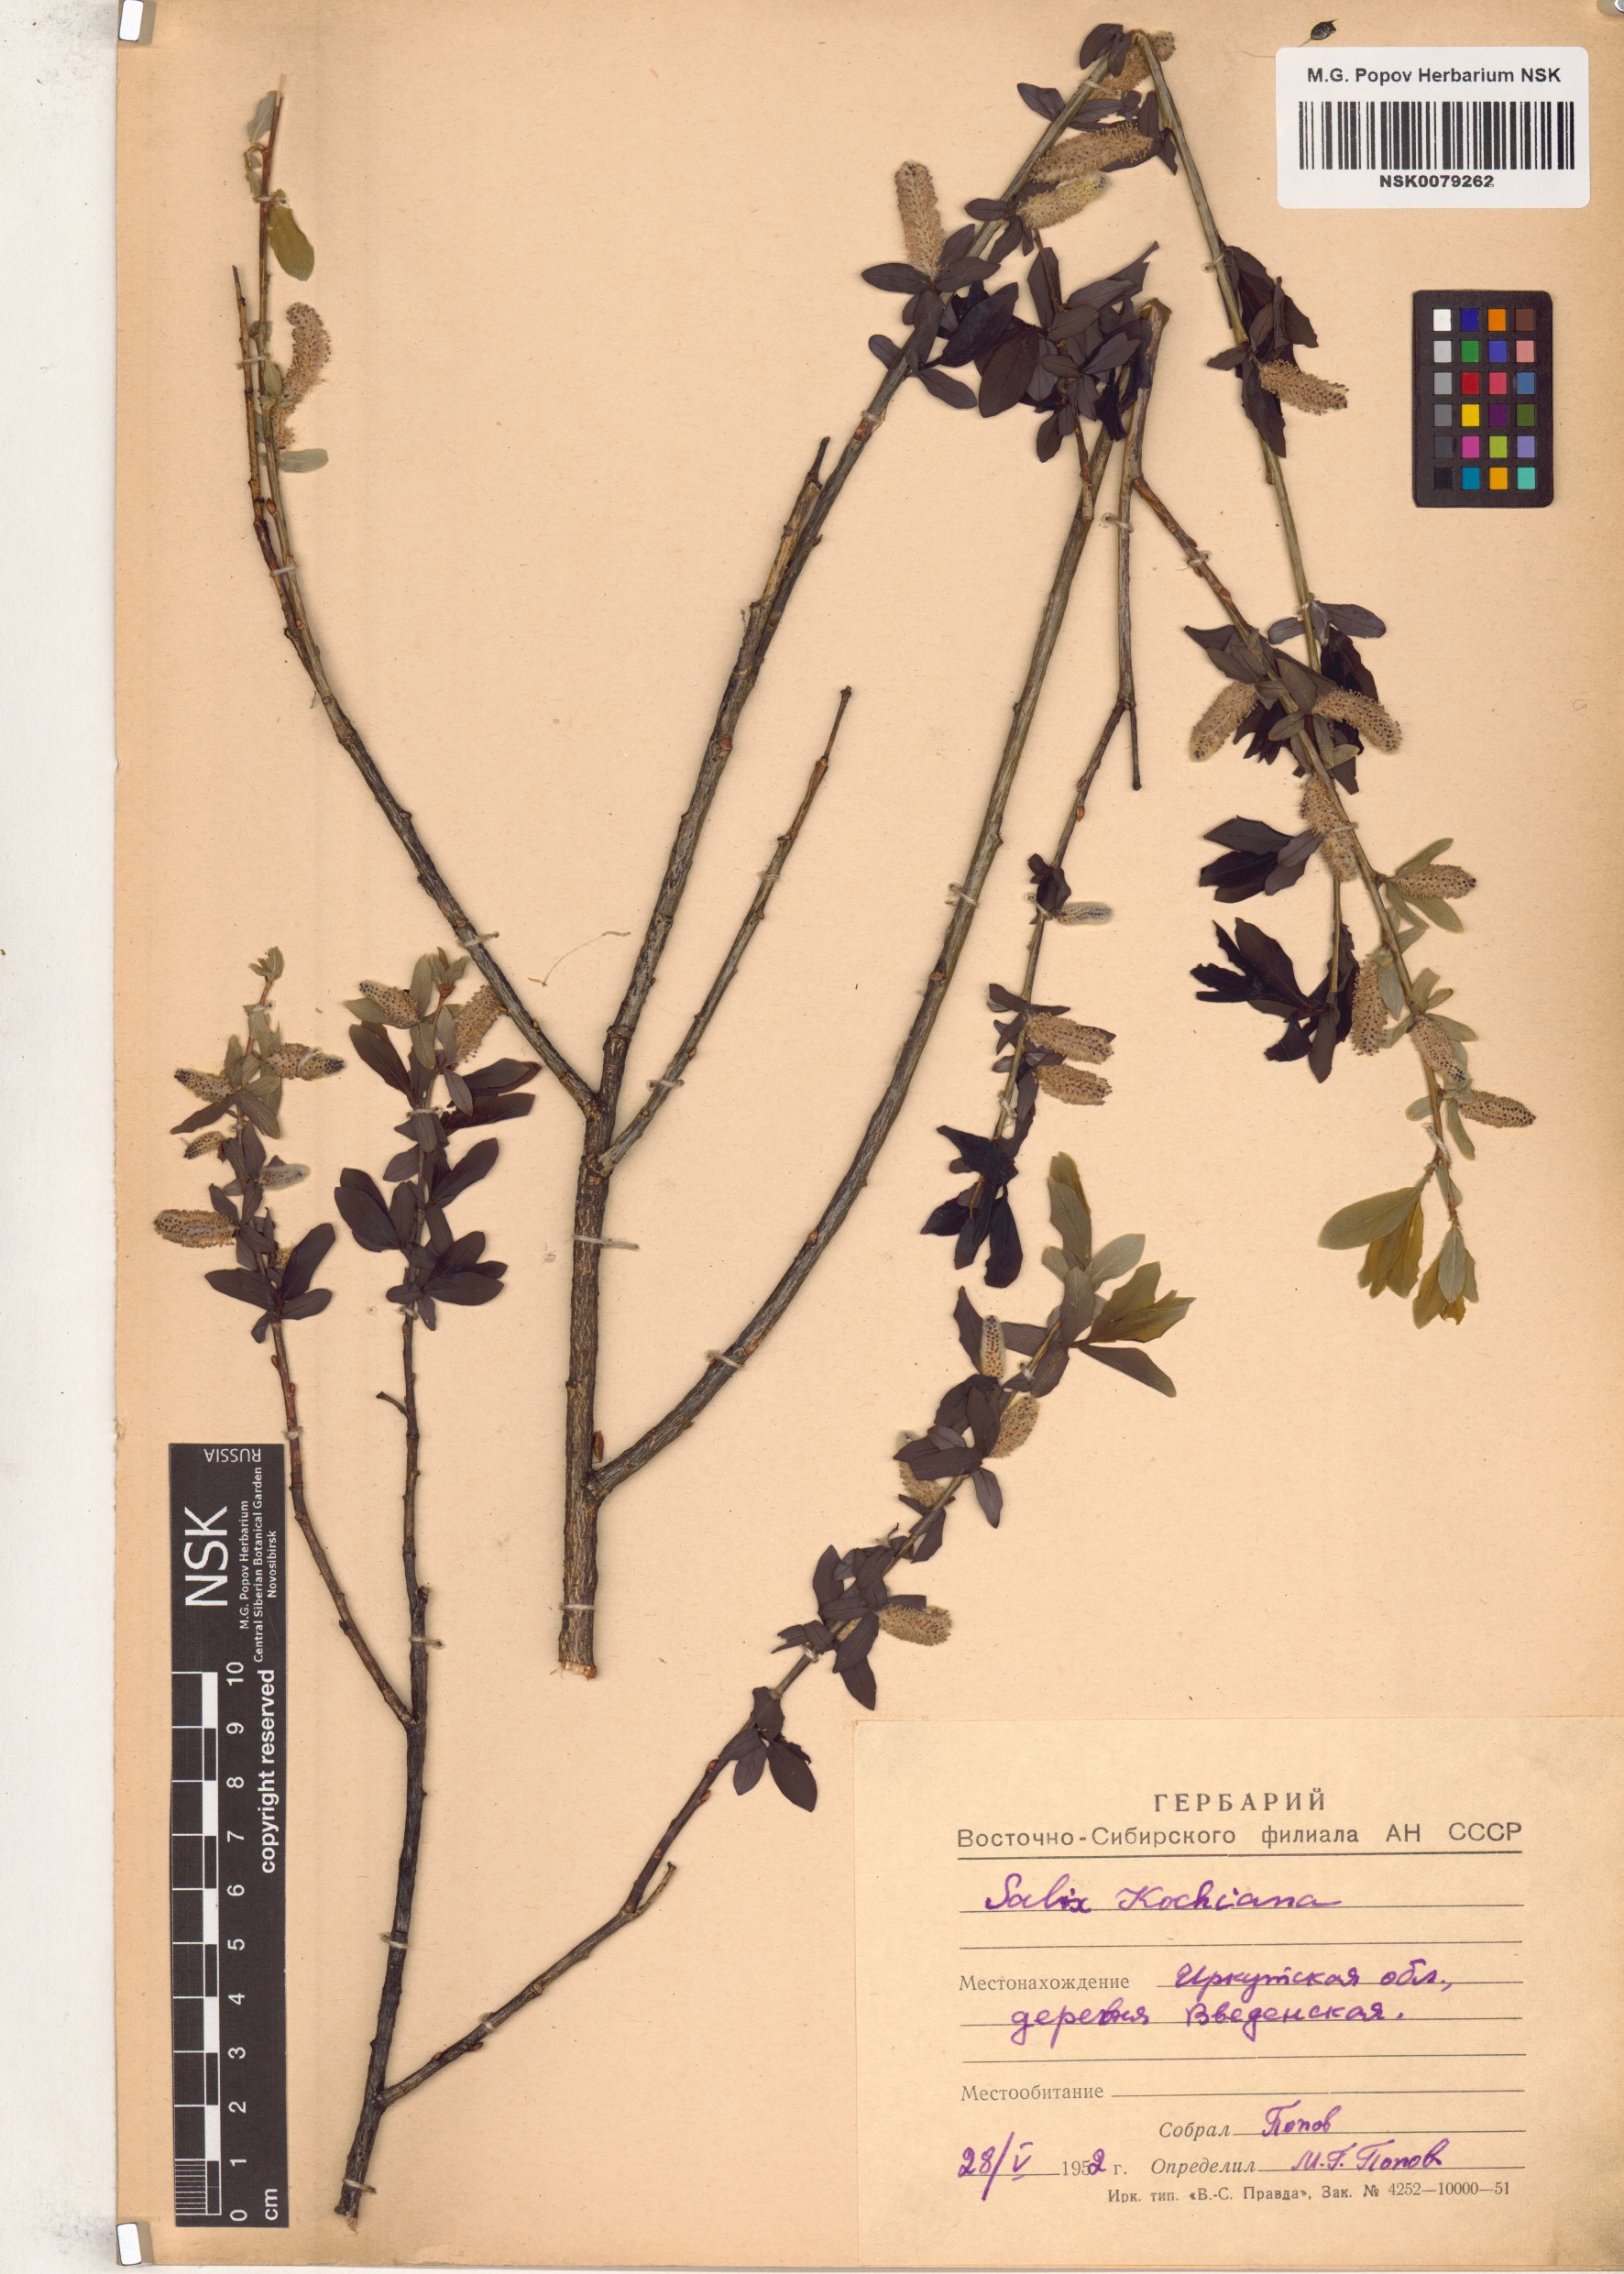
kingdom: Plantae
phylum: Tracheophyta
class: Magnoliopsida
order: Malpighiales
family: Salicaceae
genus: Salix
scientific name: Salix kochiana
